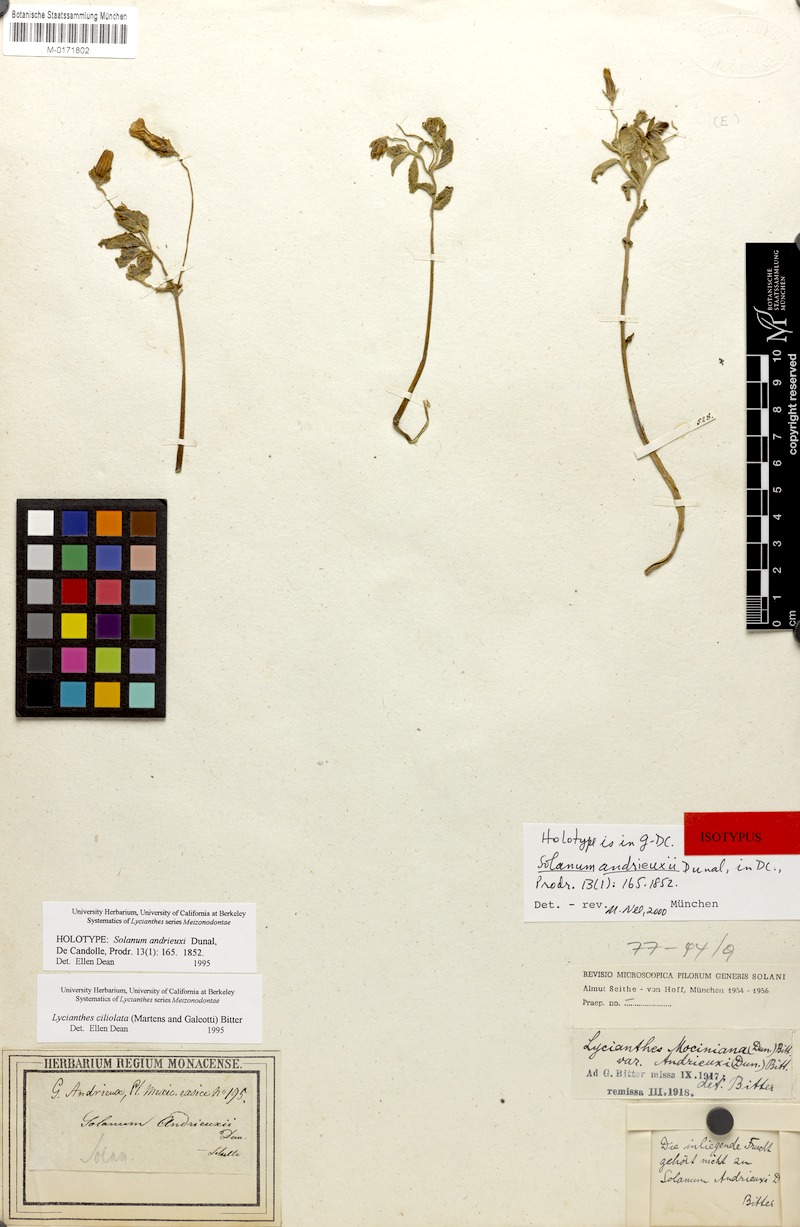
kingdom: Plantae
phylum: Tracheophyta
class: Magnoliopsida
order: Solanales
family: Solanaceae
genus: Lycianthes
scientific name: Lycianthes ciliolata
